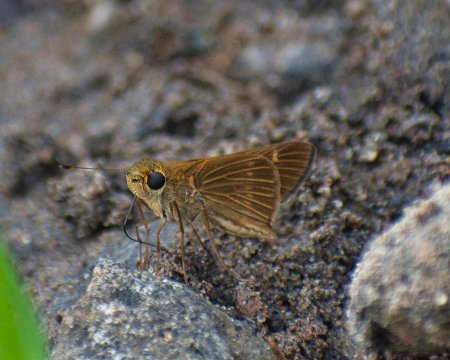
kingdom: Animalia
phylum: Arthropoda
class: Insecta
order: Lepidoptera
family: Hesperiidae
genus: Cobalopsis
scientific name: Cobalopsis latonia
